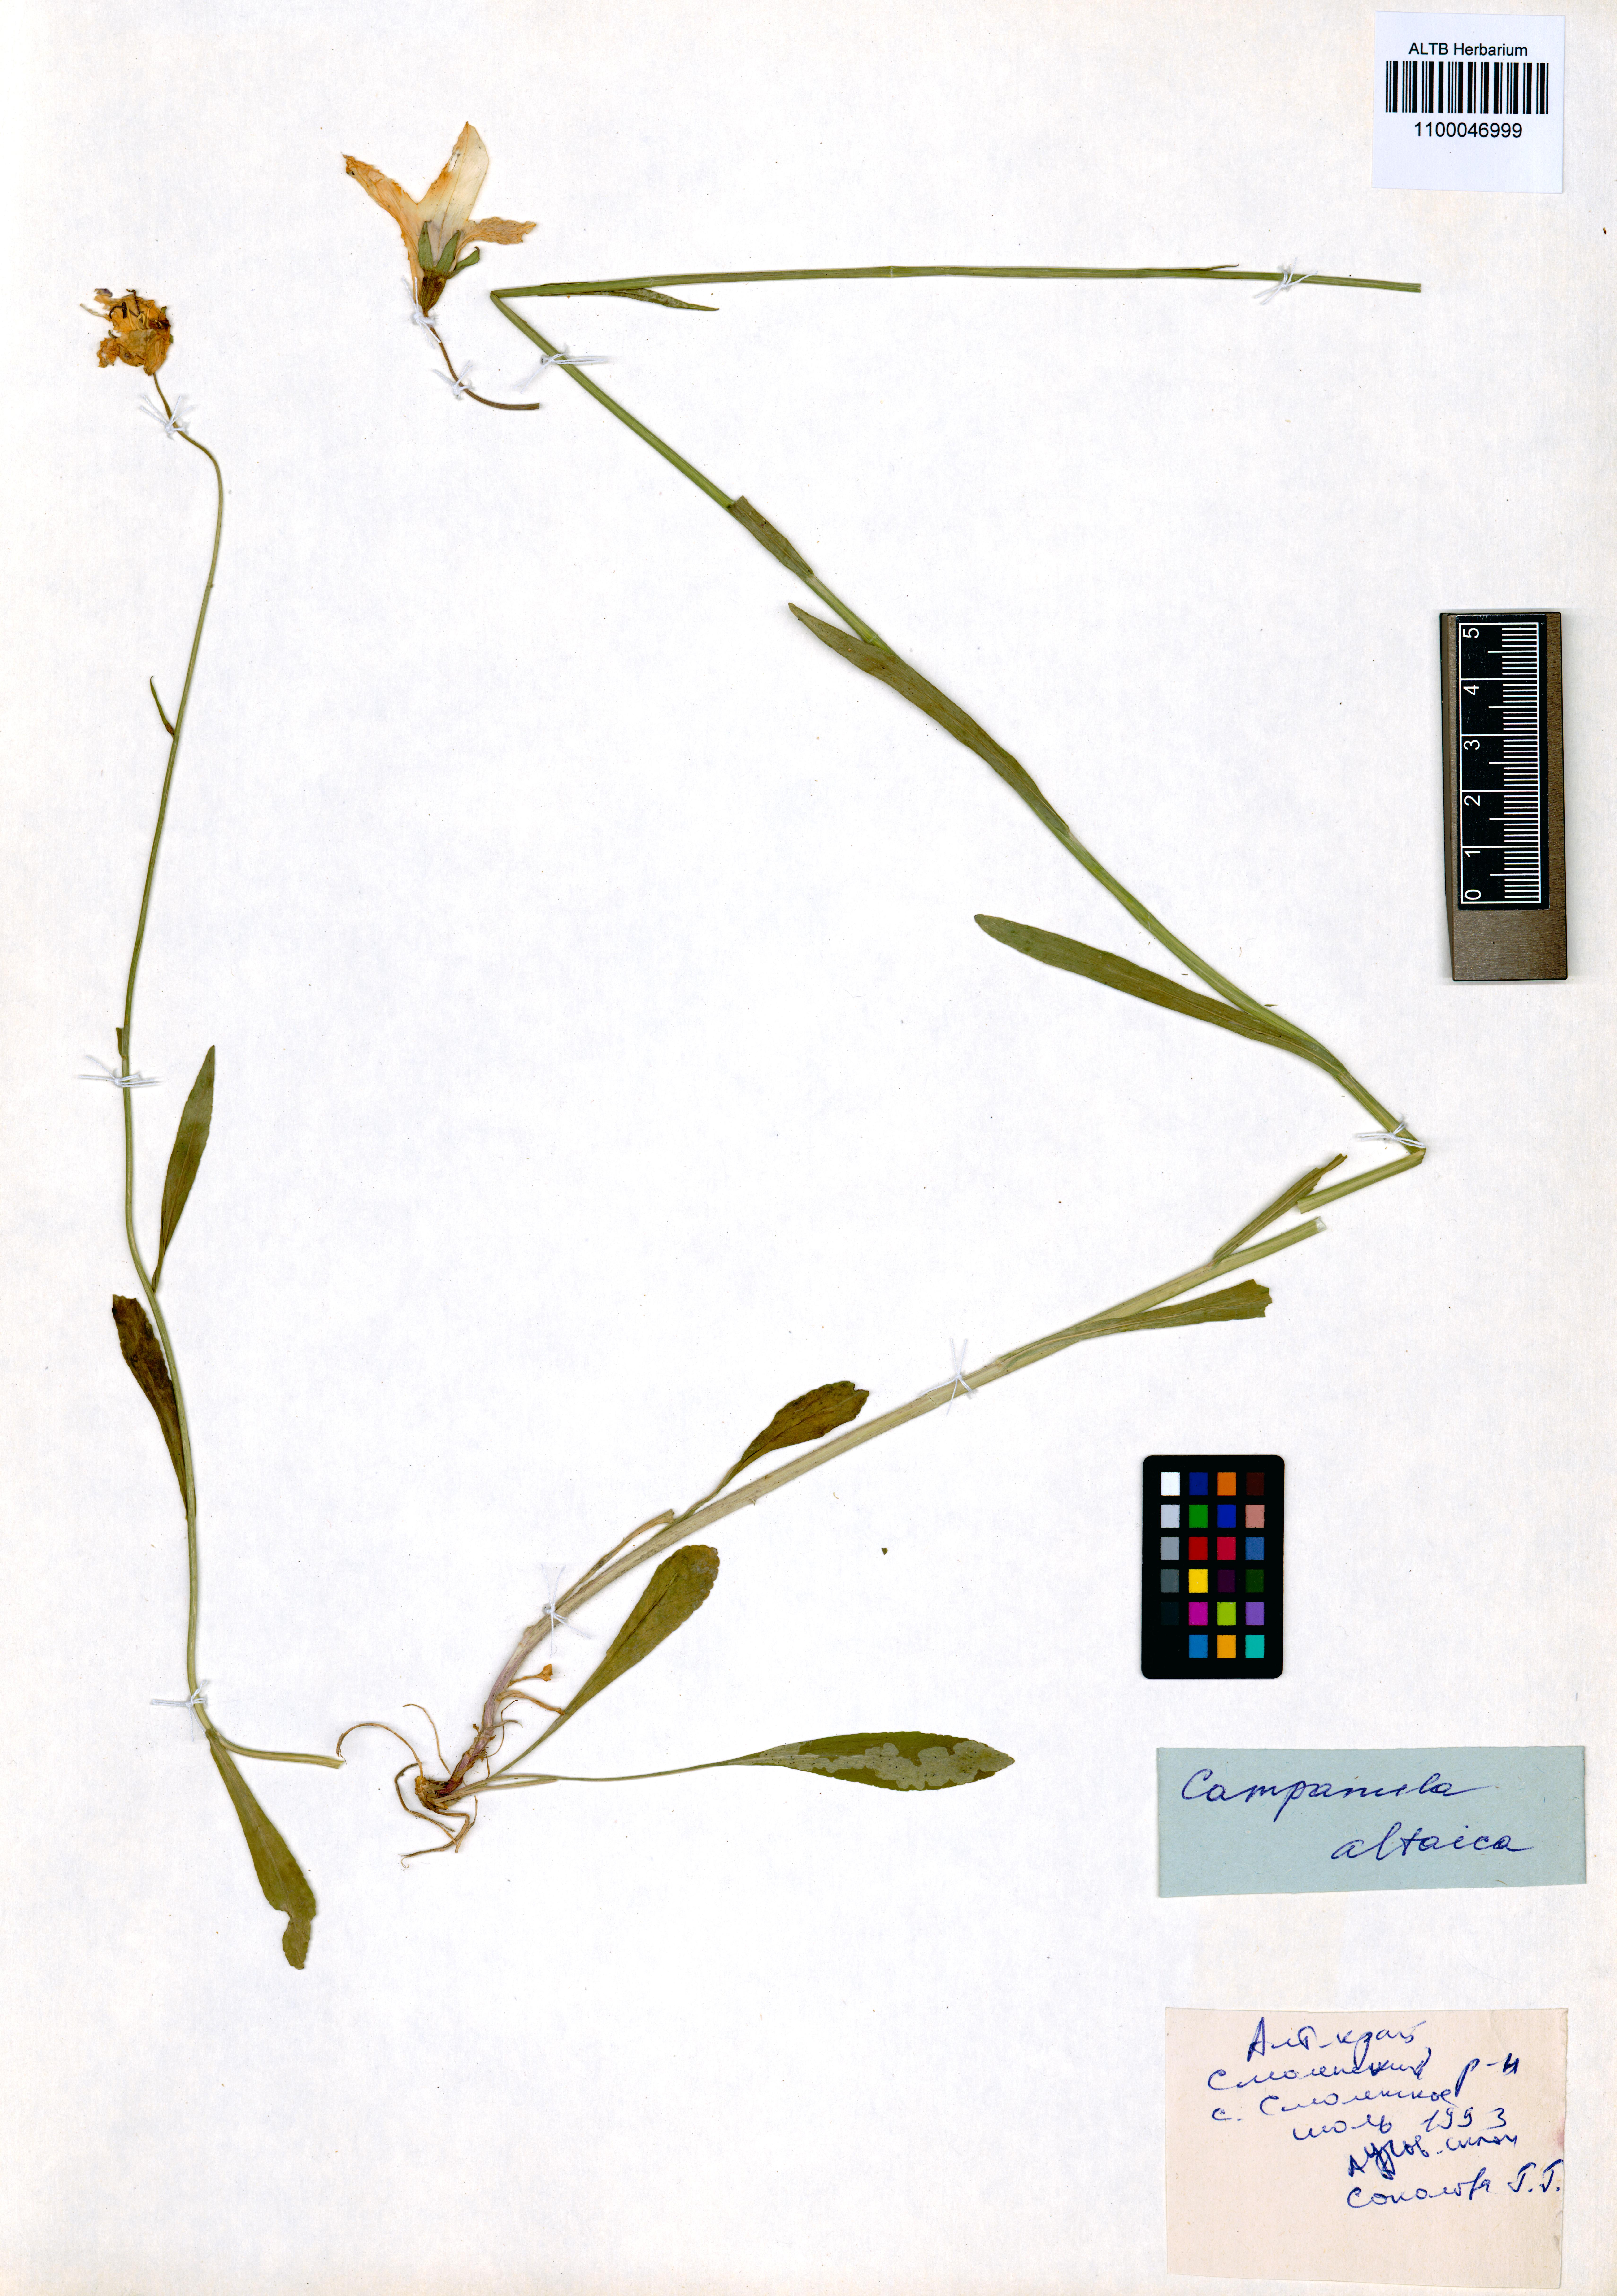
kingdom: Plantae
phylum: Tracheophyta
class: Magnoliopsida
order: Asterales
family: Campanulaceae
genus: Campanula
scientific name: Campanula stevenii
